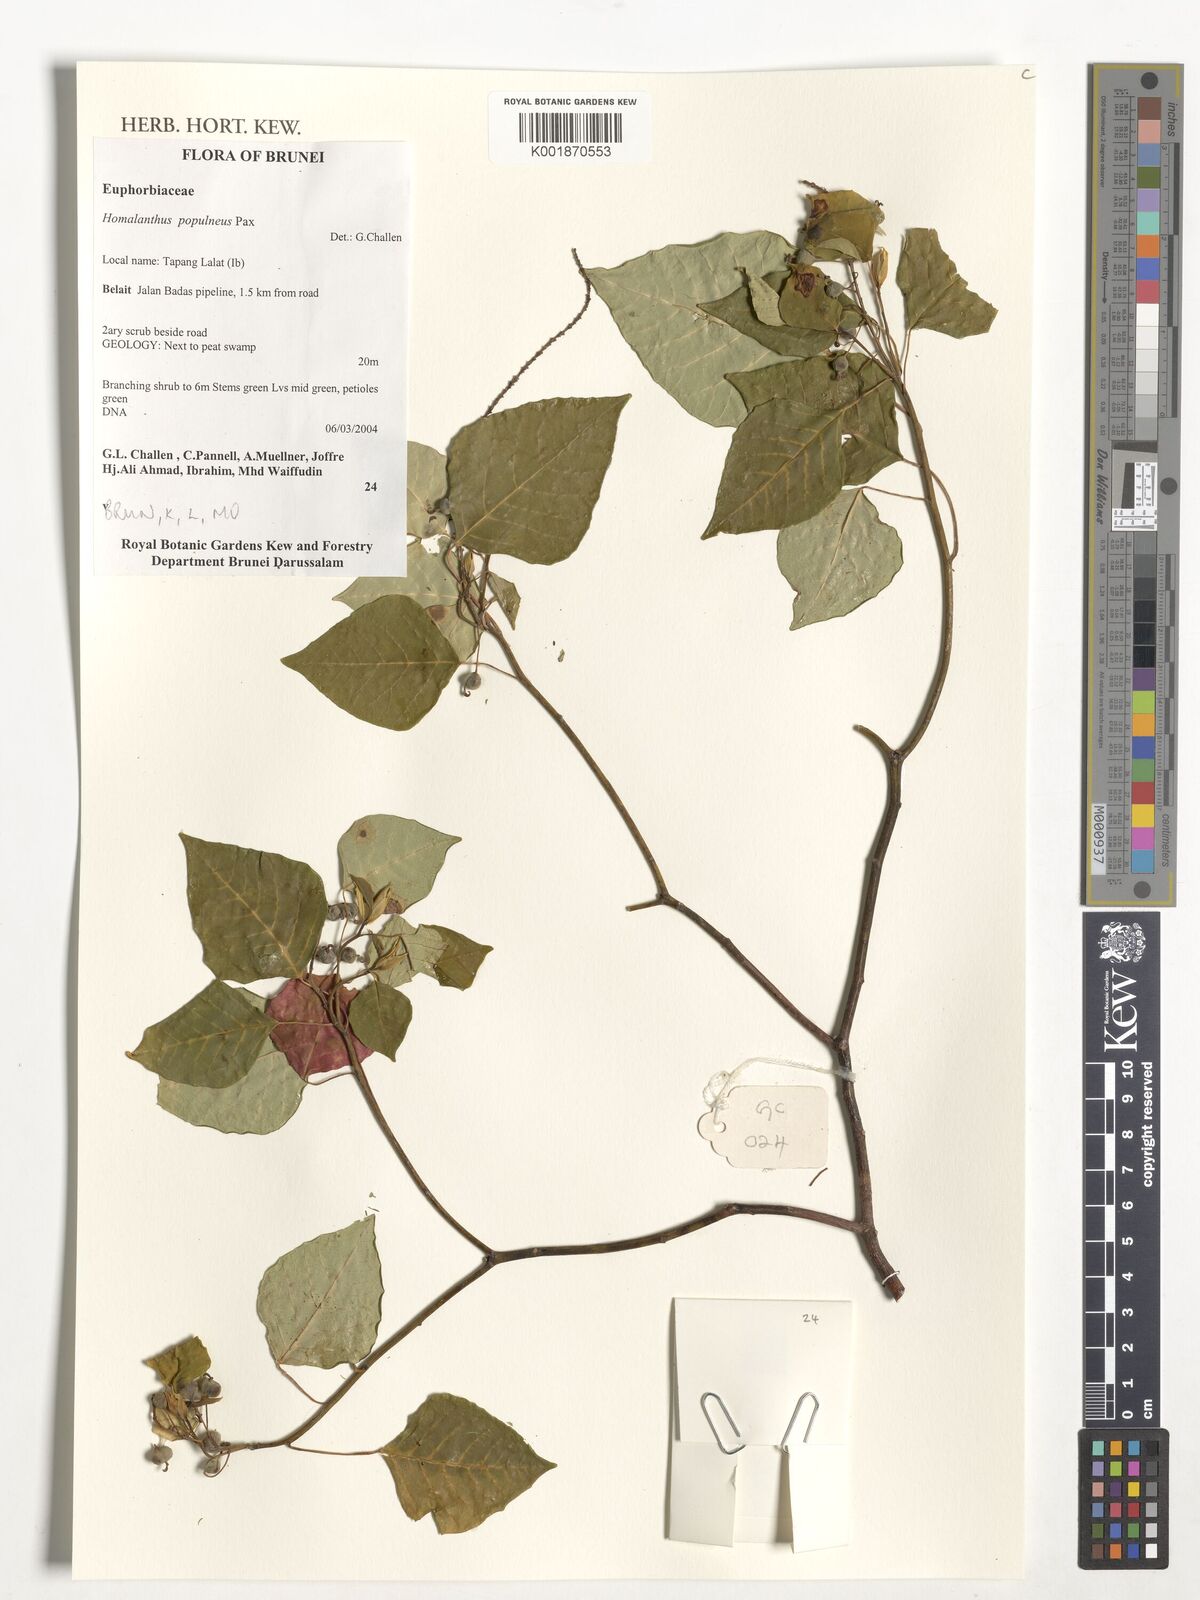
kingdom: Plantae
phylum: Tracheophyta
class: Magnoliopsida
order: Malpighiales
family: Euphorbiaceae
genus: Homalanthus
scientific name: Homalanthus populneus
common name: Spurge
